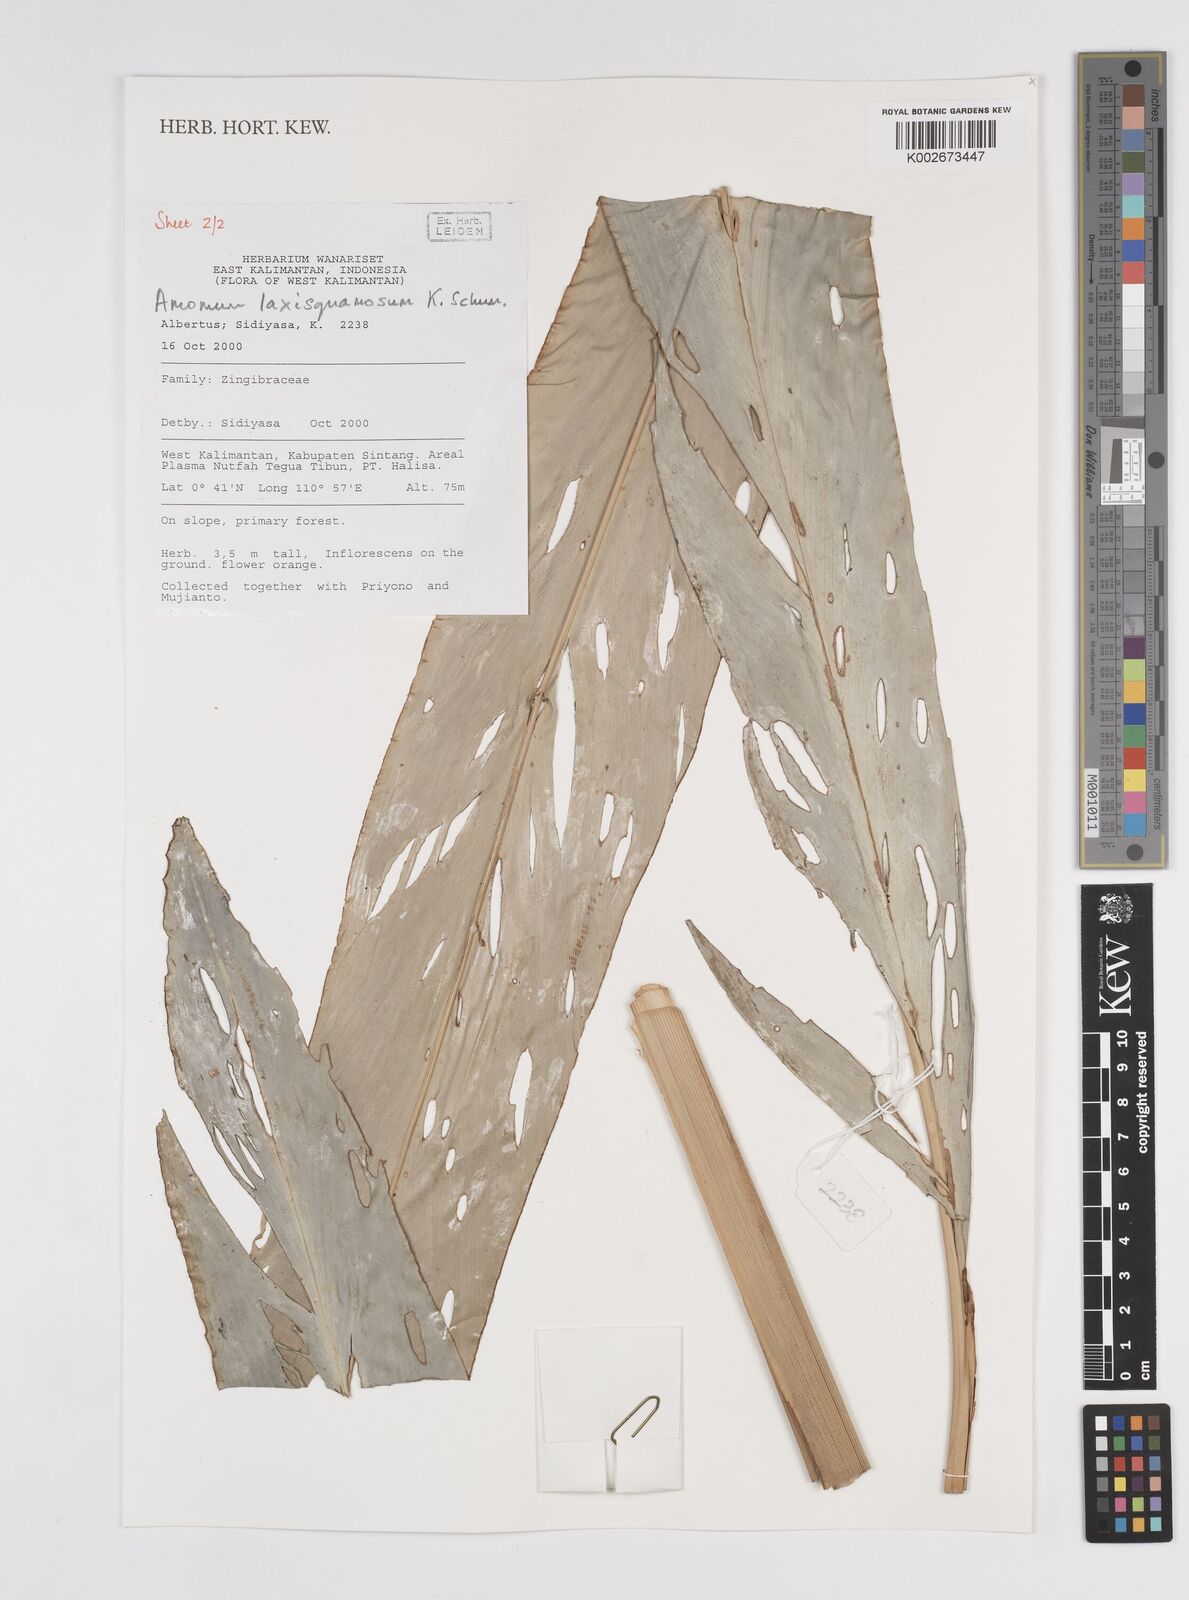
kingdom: Plantae
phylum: Tracheophyta
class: Liliopsida
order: Zingiberales
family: Zingiberaceae
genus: Sundamomum
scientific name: Sundamomum laxesquamosum
